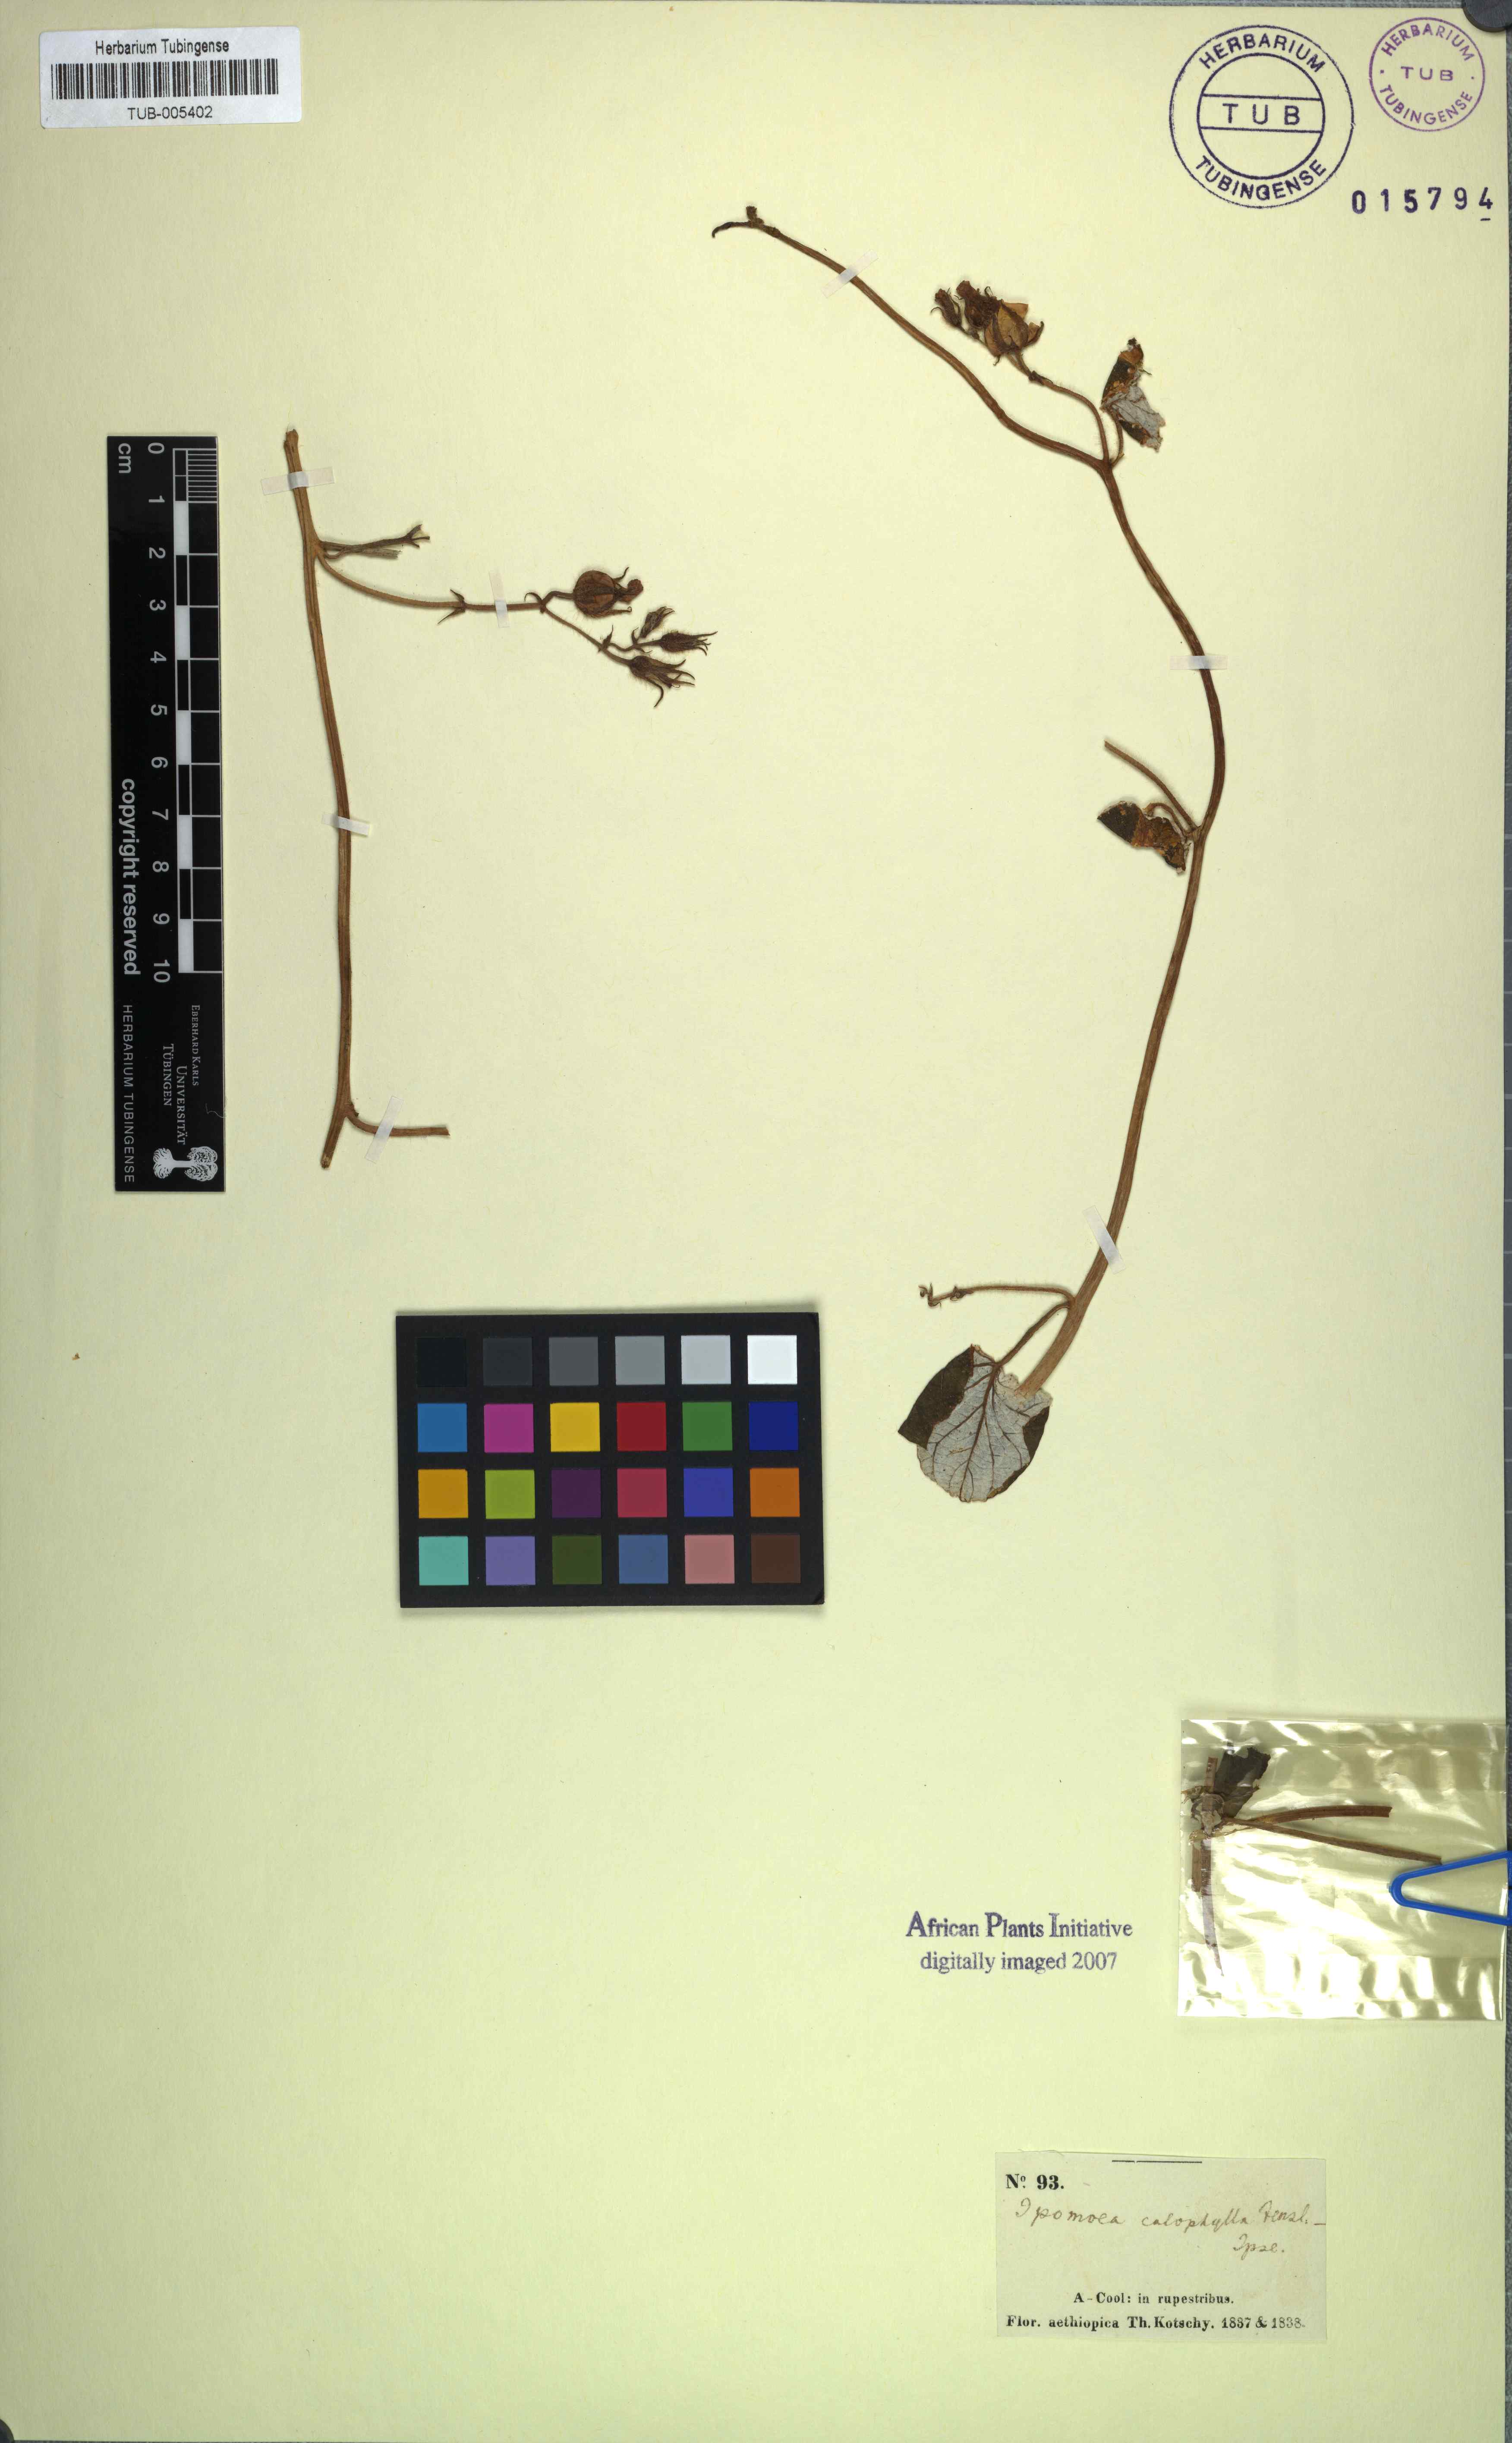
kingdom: Plantae
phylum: Tracheophyta
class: Magnoliopsida
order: Solanales
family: Convolvulaceae
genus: Ipomoea
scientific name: Ipomoea arachnosperma
